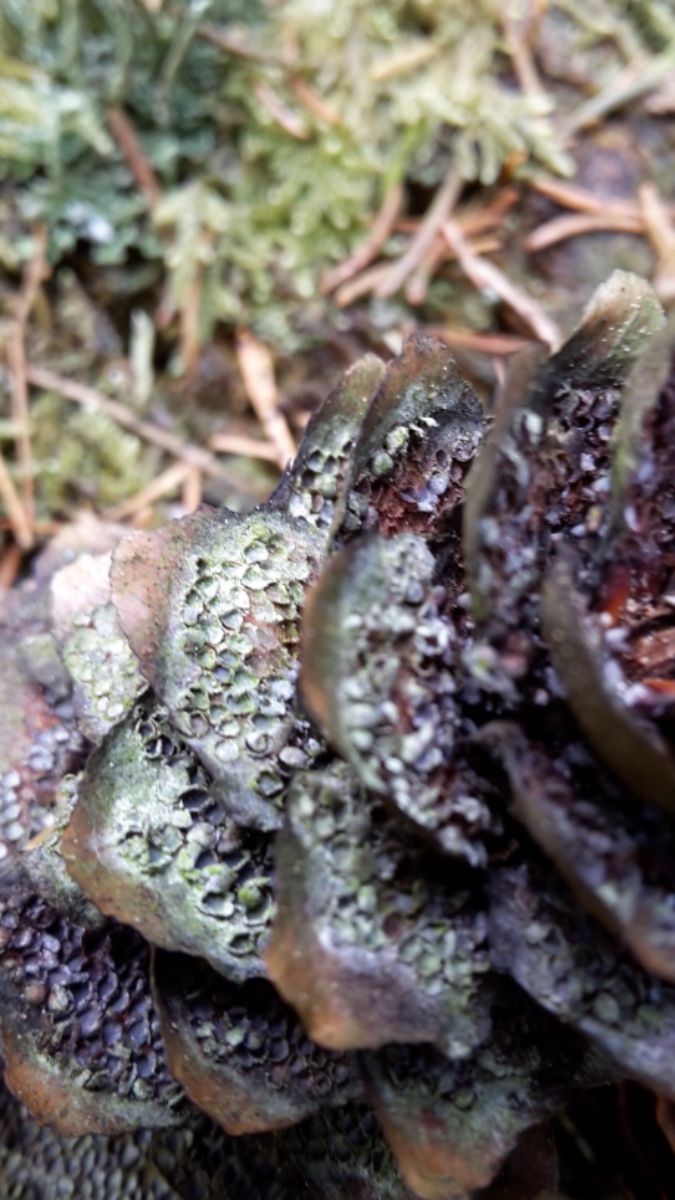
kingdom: Fungi
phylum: Basidiomycota
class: Pucciniomycetes
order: Pucciniales
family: Pucciniastraceae
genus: Thekopsora
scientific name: Thekopsora areolata
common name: grankogle-nålerust
